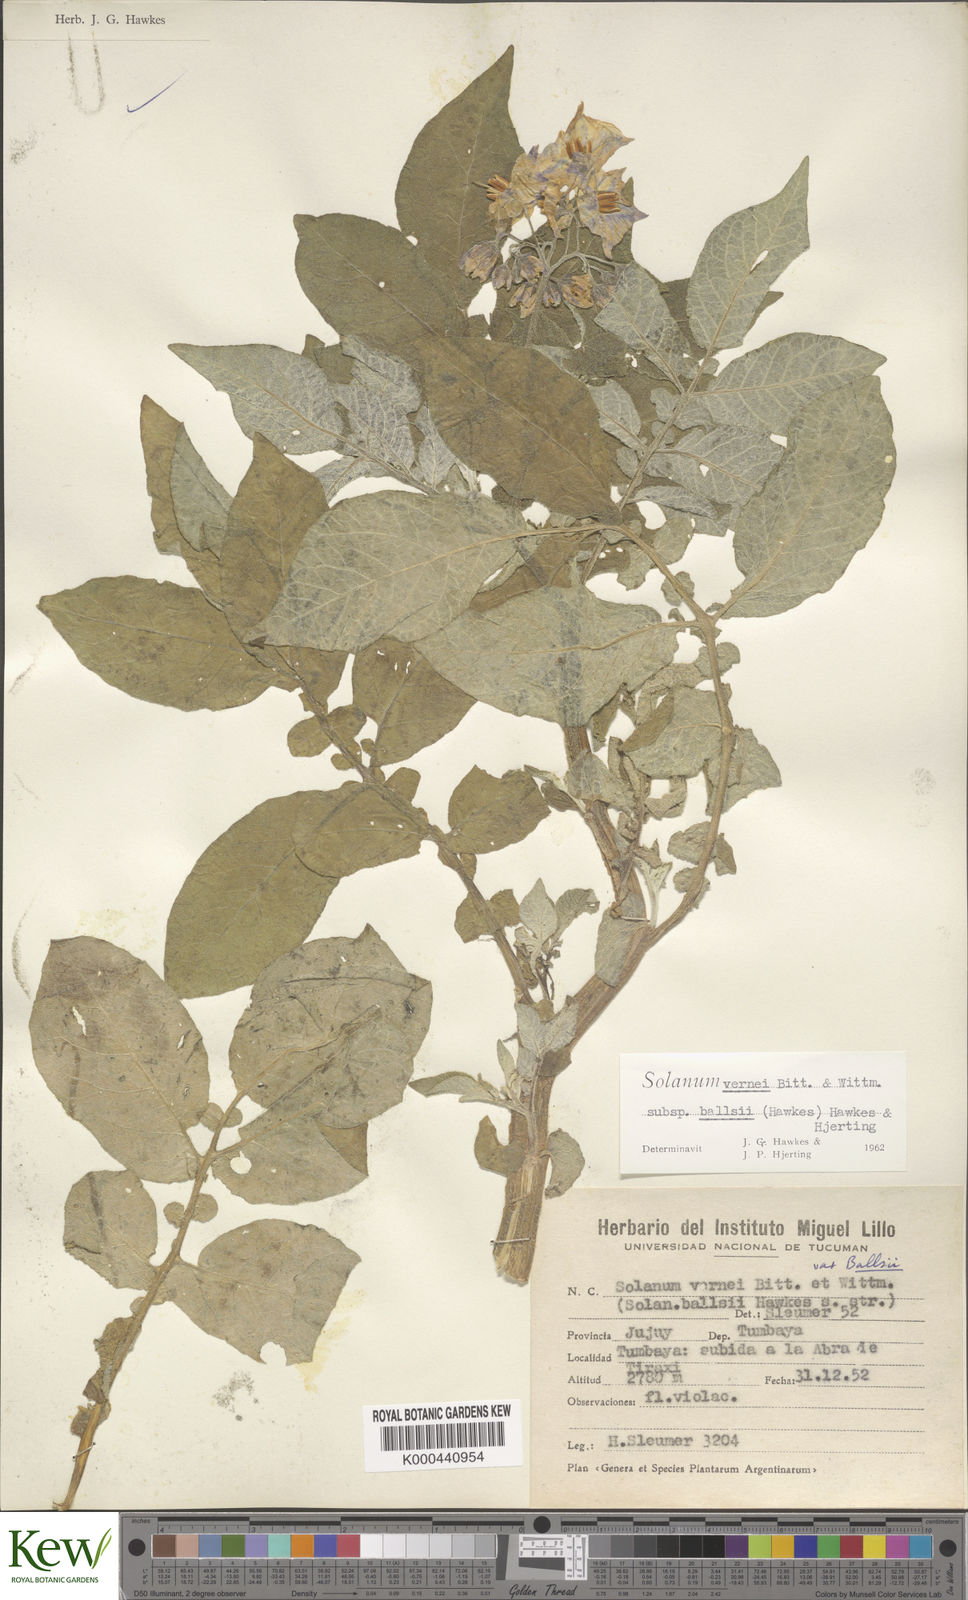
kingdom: Plantae
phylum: Tracheophyta
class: Magnoliopsida
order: Solanales
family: Solanaceae
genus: Solanum
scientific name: Solanum vernei
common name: Purple potato
